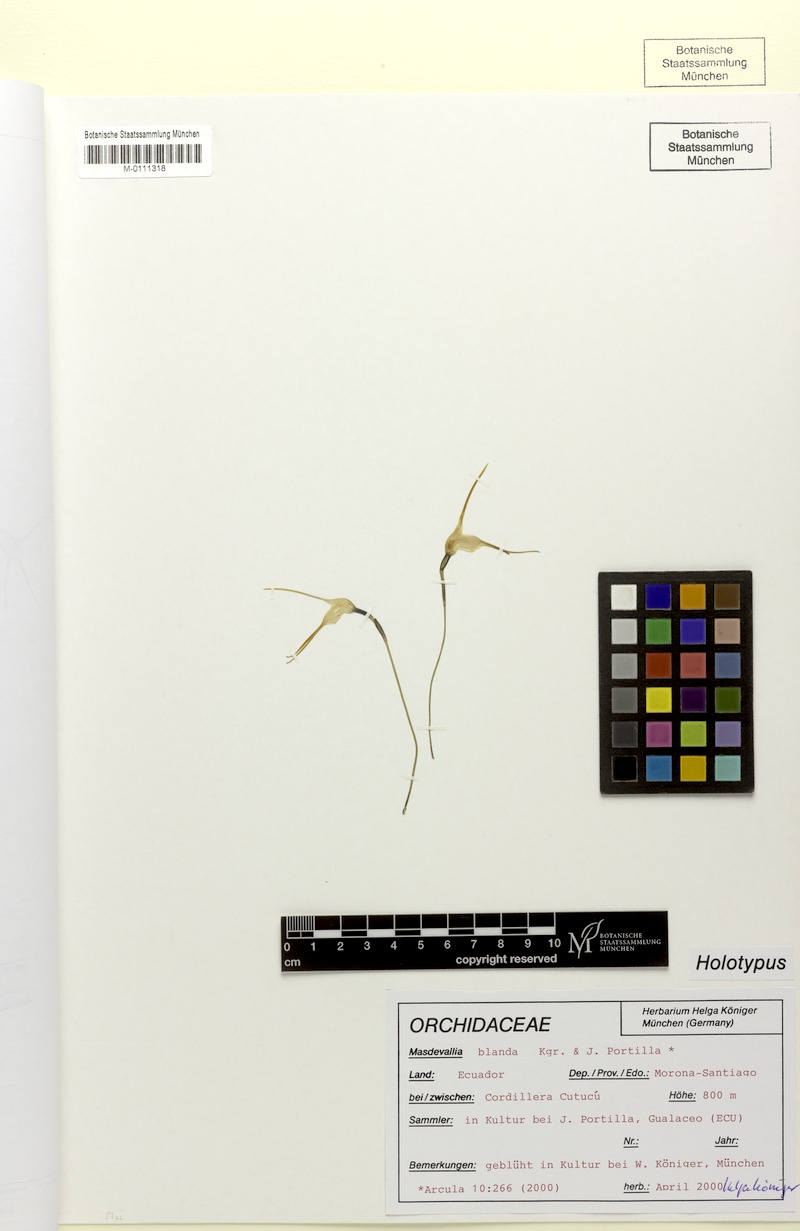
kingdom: Plantae
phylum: Tracheophyta
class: Liliopsida
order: Asparagales
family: Orchidaceae
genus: Masdevallia
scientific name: Masdevallia crassicaudis
